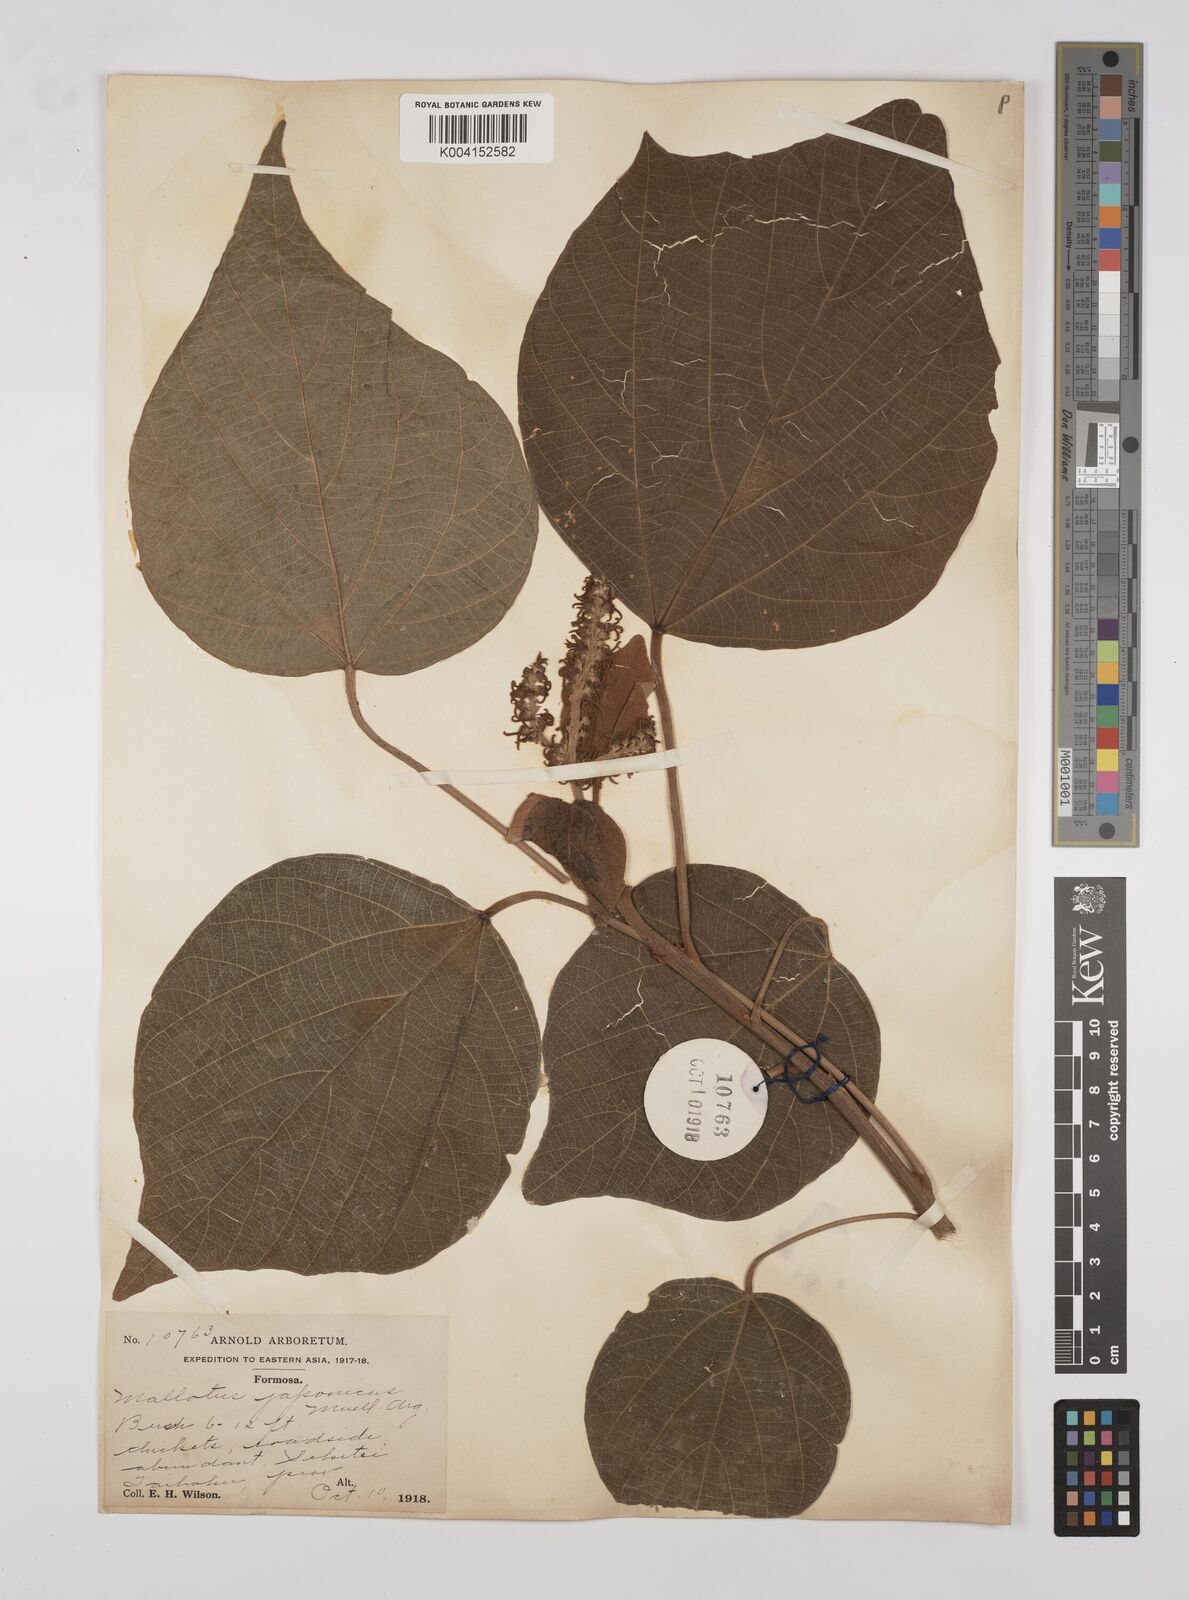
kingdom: Plantae
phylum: Tracheophyta
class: Magnoliopsida
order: Malpighiales
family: Euphorbiaceae
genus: Mallotus
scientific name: Mallotus japonicus
